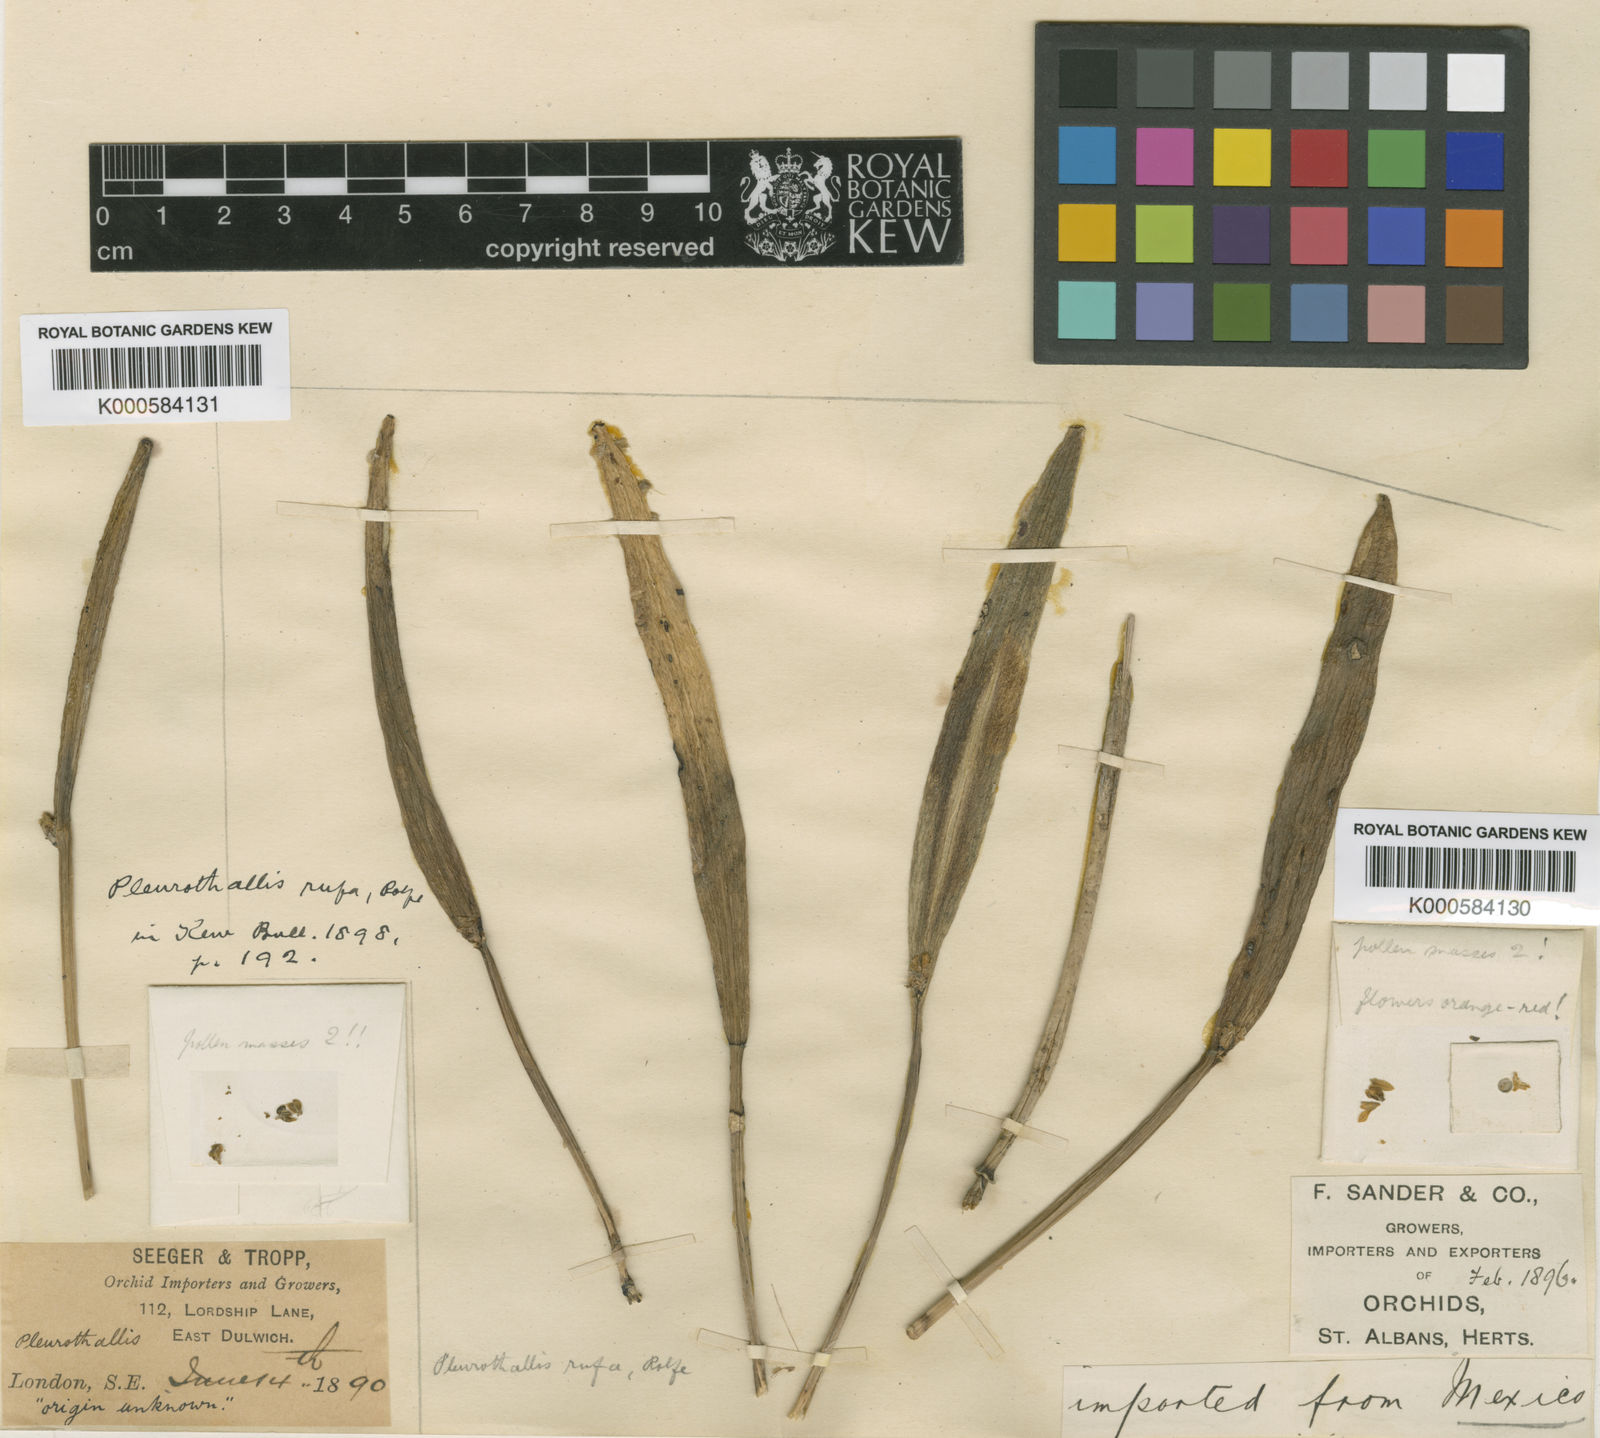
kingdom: Plantae
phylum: Tracheophyta
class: Liliopsida
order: Asparagales
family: Orchidaceae
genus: Acianthera
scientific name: Acianthera obscura
